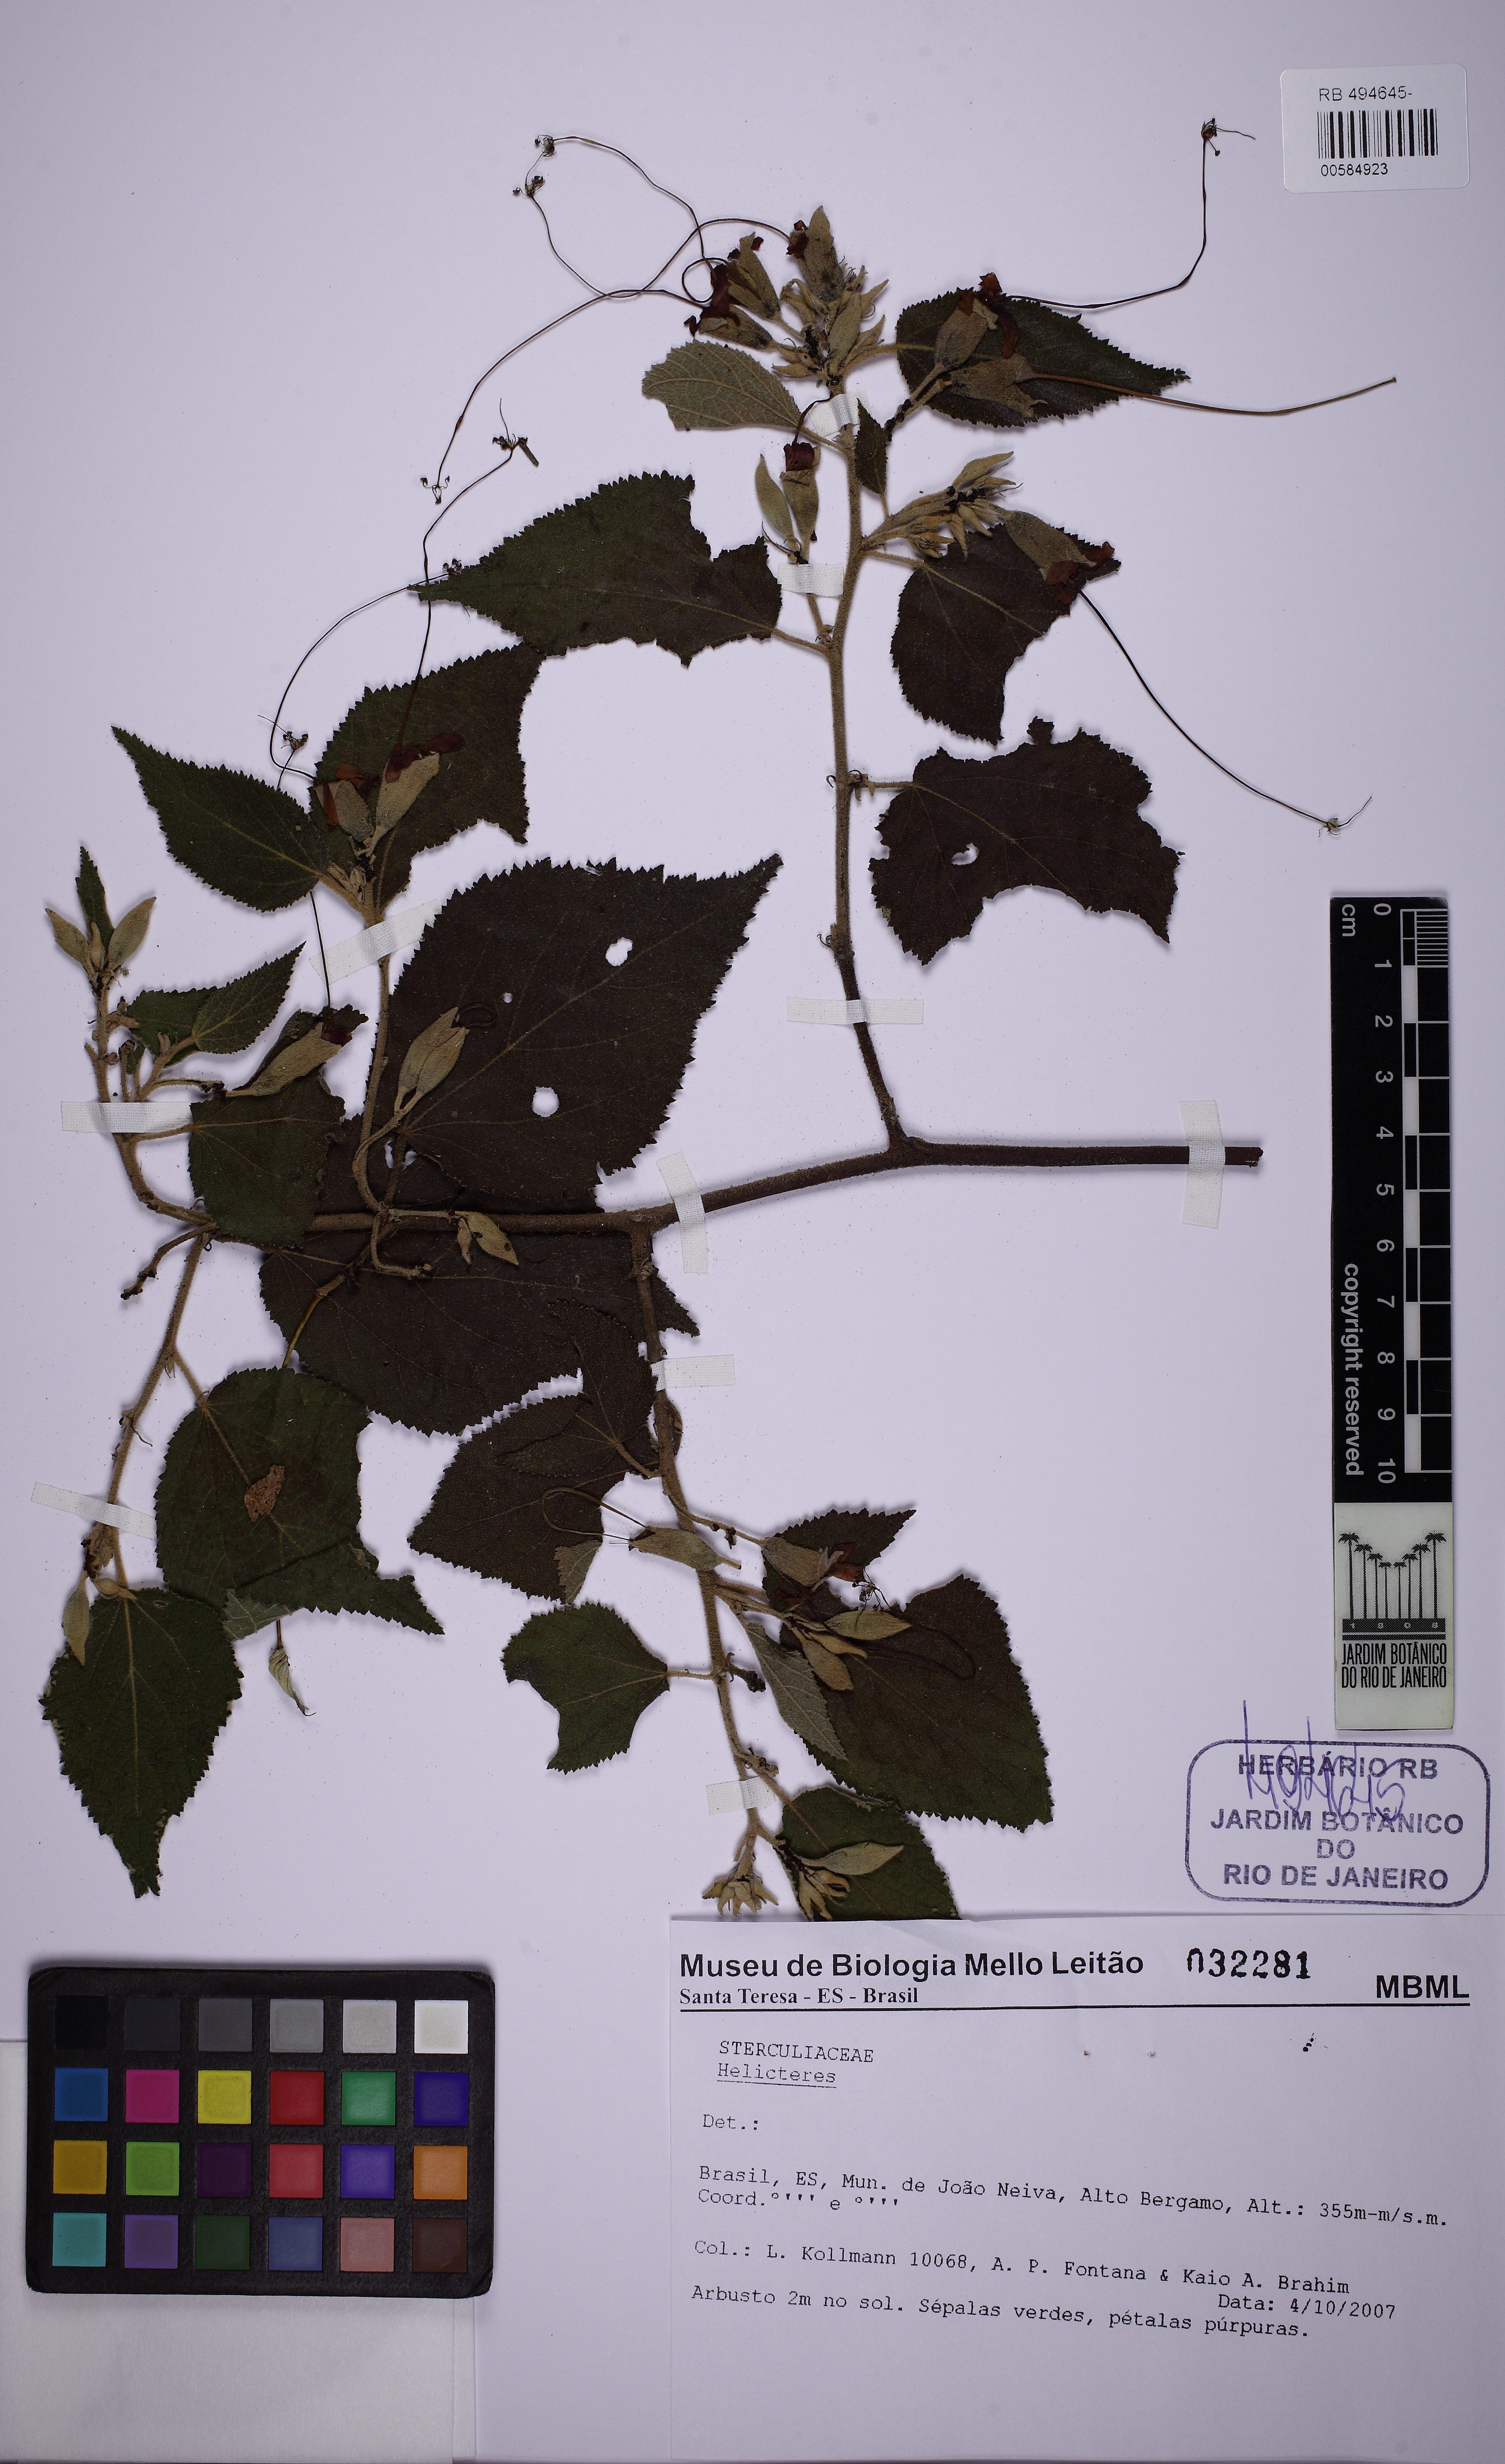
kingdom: Plantae
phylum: Tracheophyta
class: Magnoliopsida
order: Malvales
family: Malvaceae
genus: Helicteres
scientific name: Helicteres
